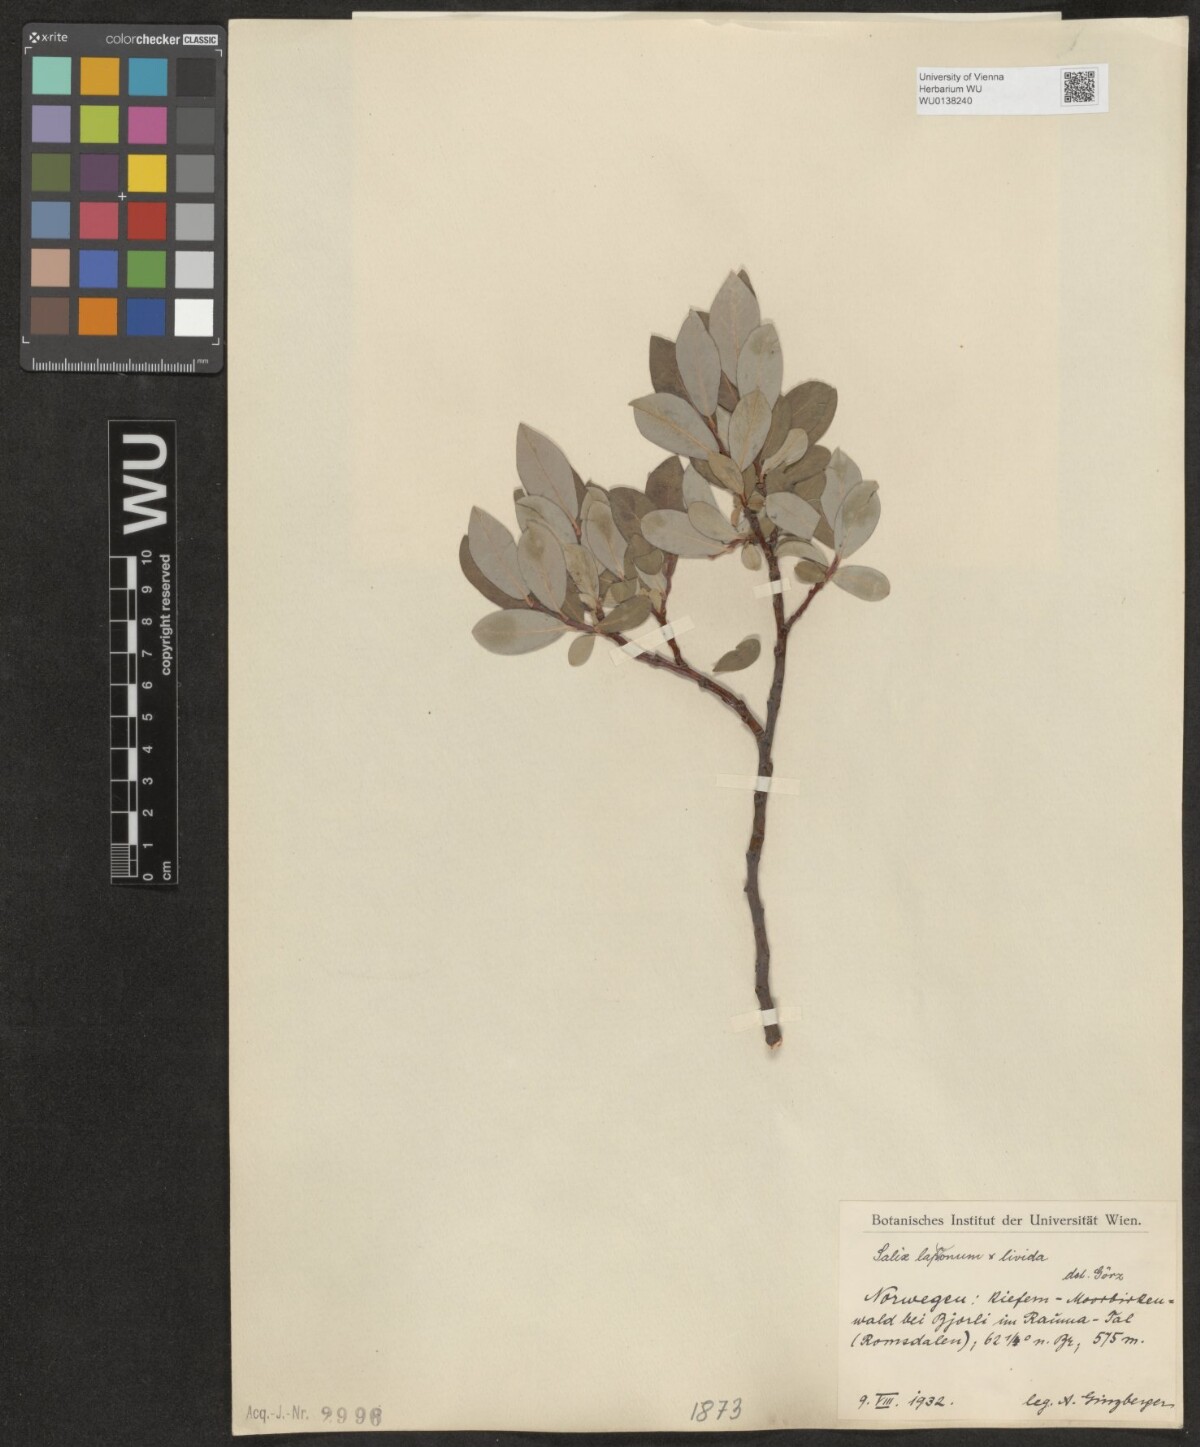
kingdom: Plantae
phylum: Tracheophyta
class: Magnoliopsida
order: Malpighiales
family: Salicaceae
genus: Salix
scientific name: Salix lapponum
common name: Downy willow
